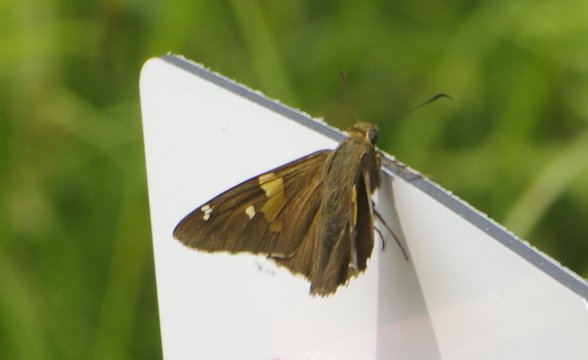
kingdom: Animalia
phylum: Arthropoda
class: Insecta
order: Lepidoptera
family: Hesperiidae
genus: Epargyreus
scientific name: Epargyreus clarus
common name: Silver-spotted Skipper
